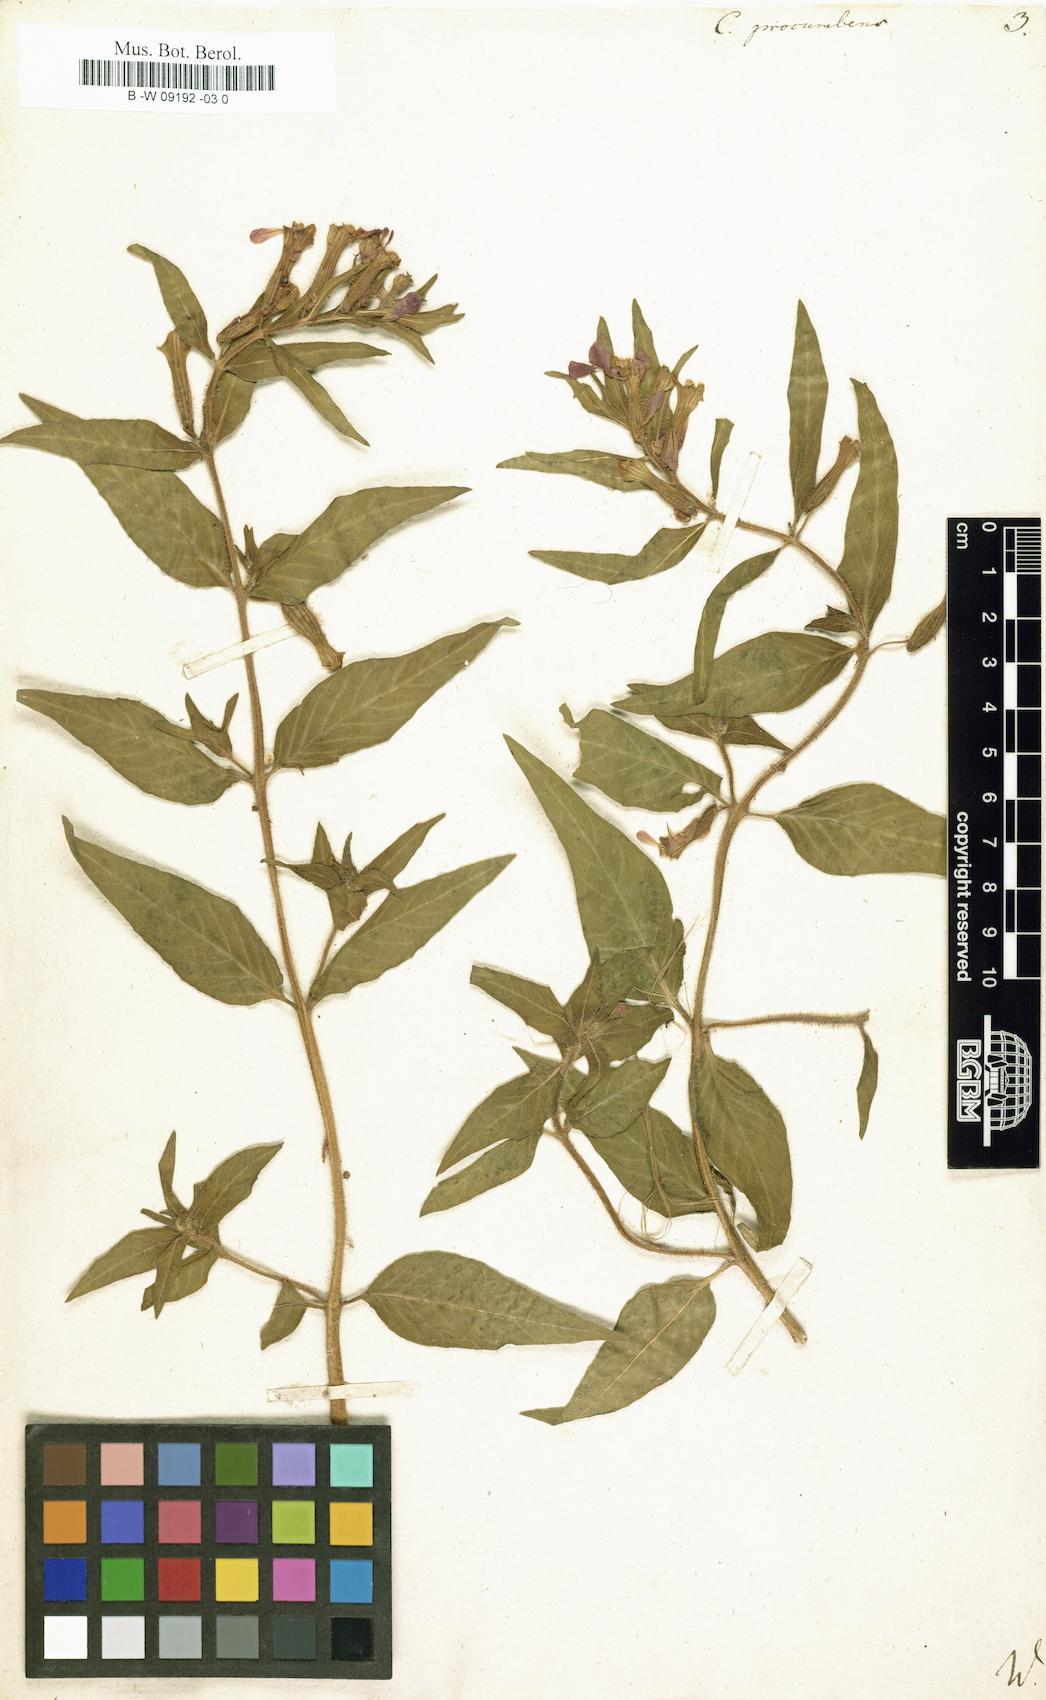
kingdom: Plantae
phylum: Tracheophyta
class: Magnoliopsida
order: Myrtales
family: Lythraceae
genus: Cuphea
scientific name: Cuphea procumbens
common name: Creeping waxweed
